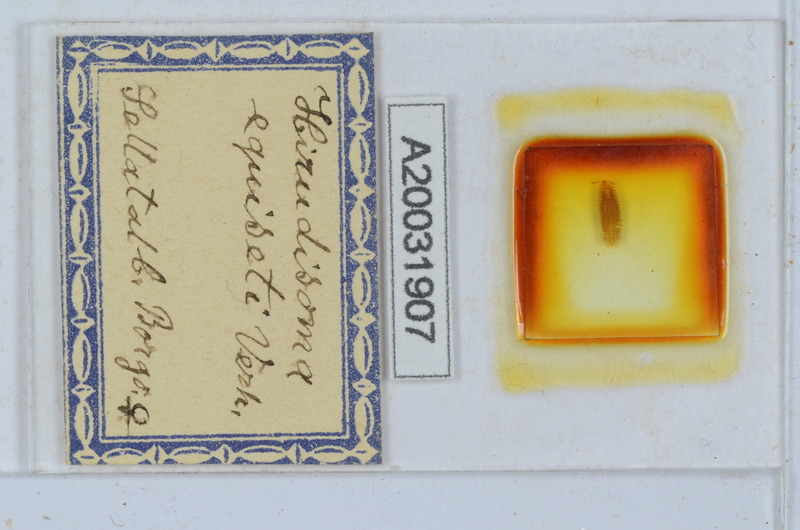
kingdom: Animalia
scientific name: Animalia
